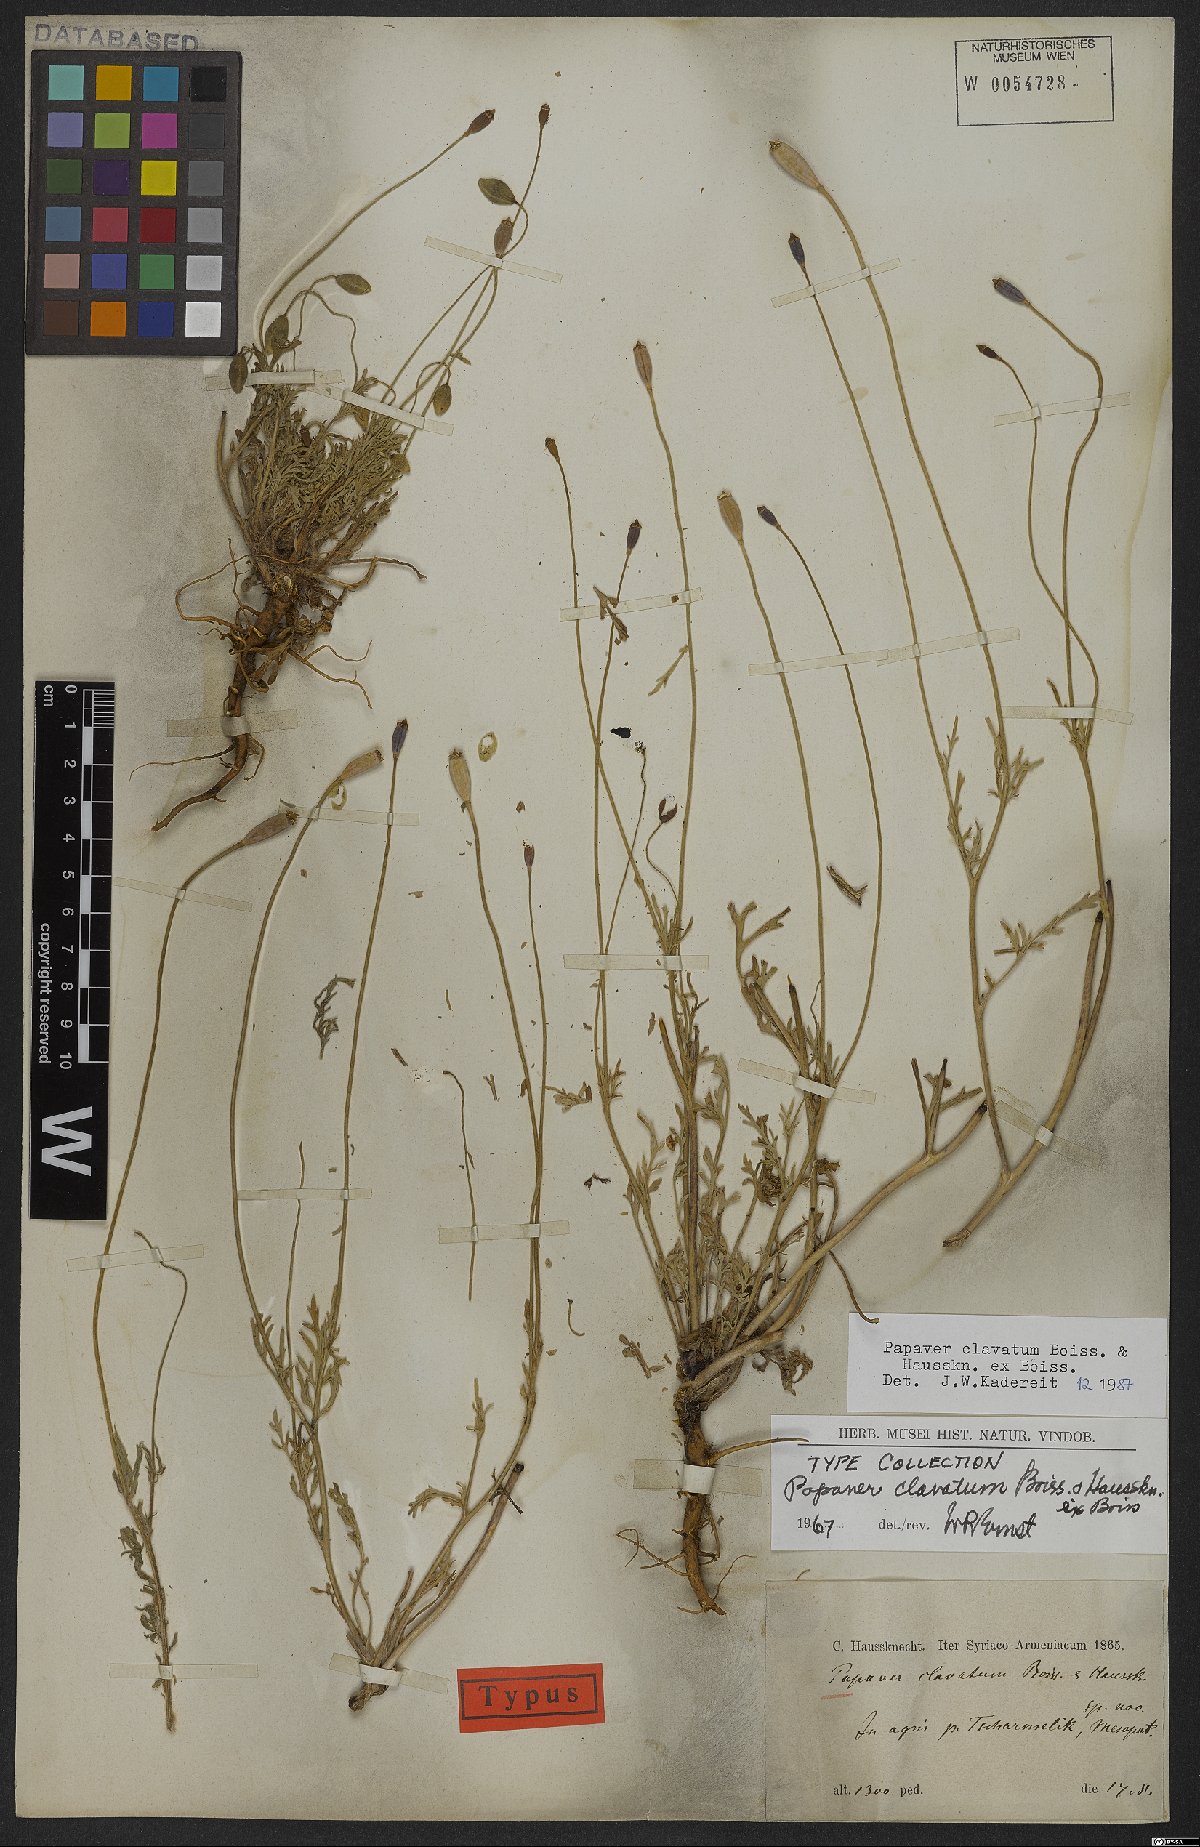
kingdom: Plantae
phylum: Tracheophyta
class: Magnoliopsida
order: Ranunculales
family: Papaveraceae
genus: Papaver
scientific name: Papaver clavatum
